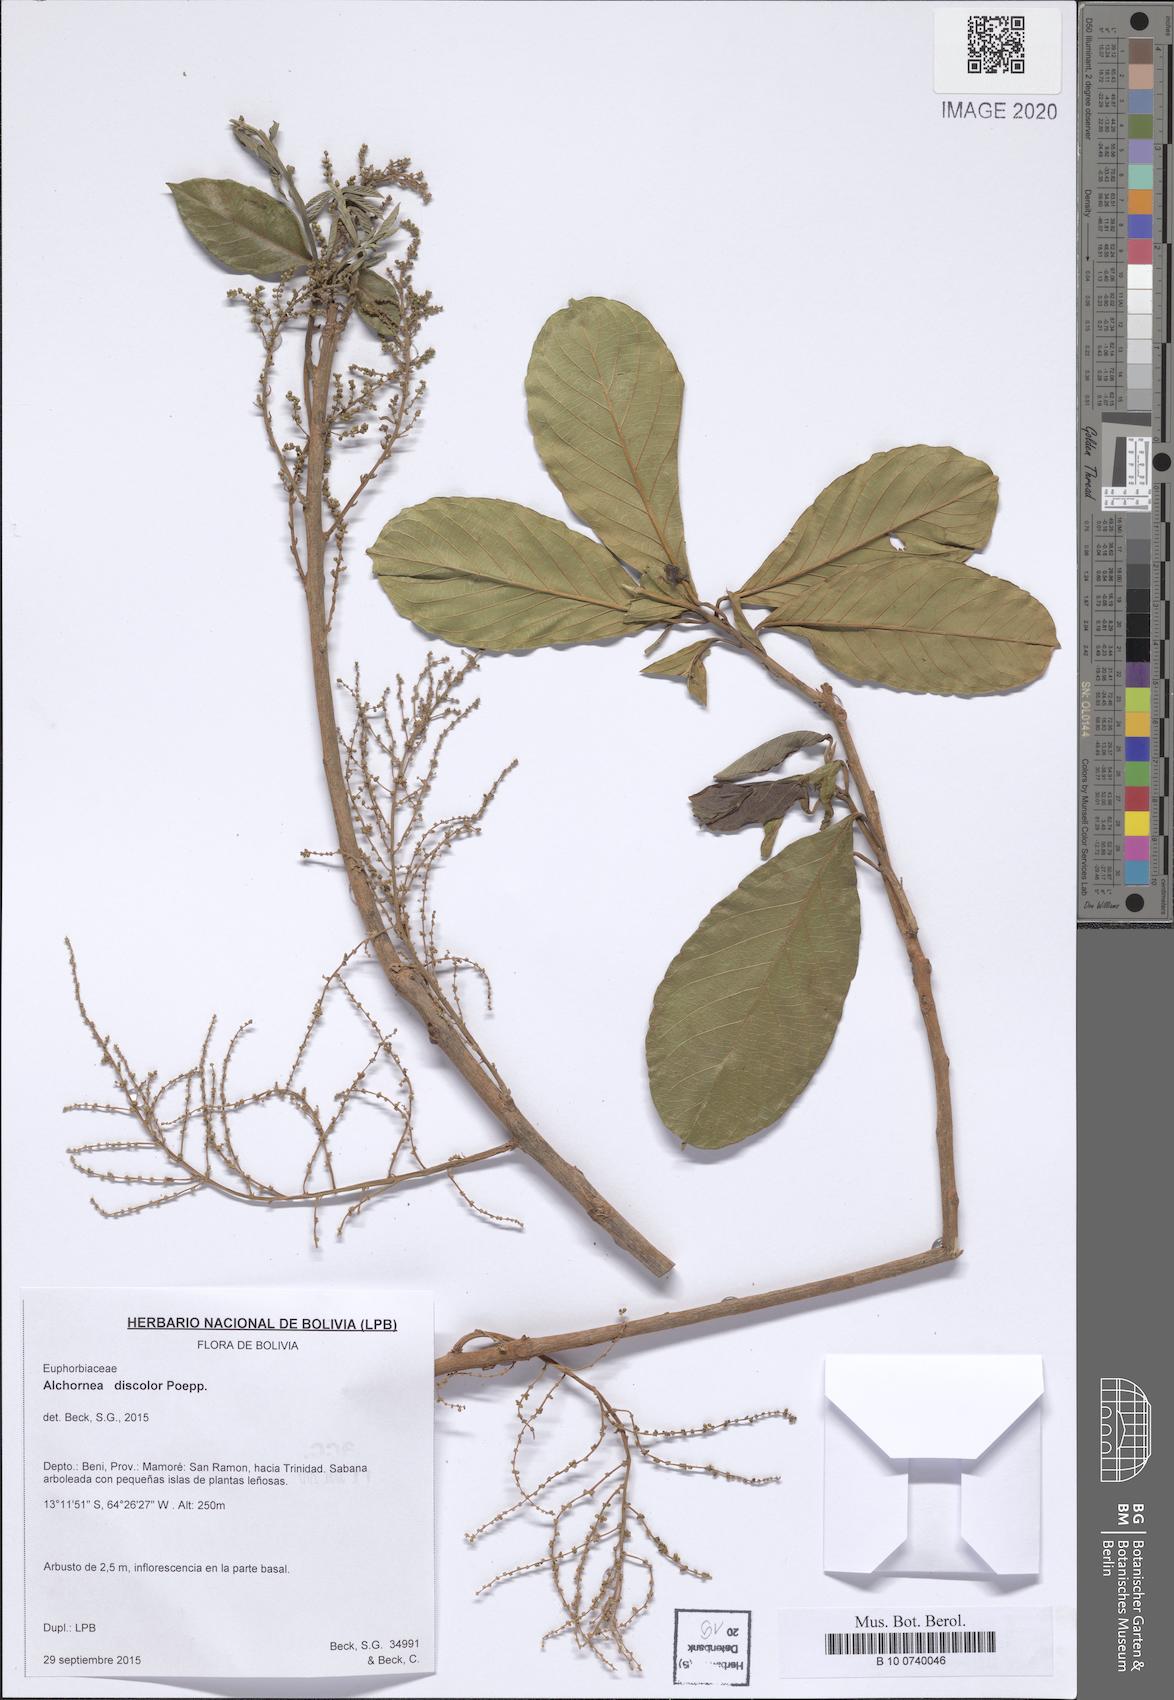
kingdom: Plantae
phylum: Tracheophyta
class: Magnoliopsida
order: Malpighiales
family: Euphorbiaceae
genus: Alchornea
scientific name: Alchornea discolor
